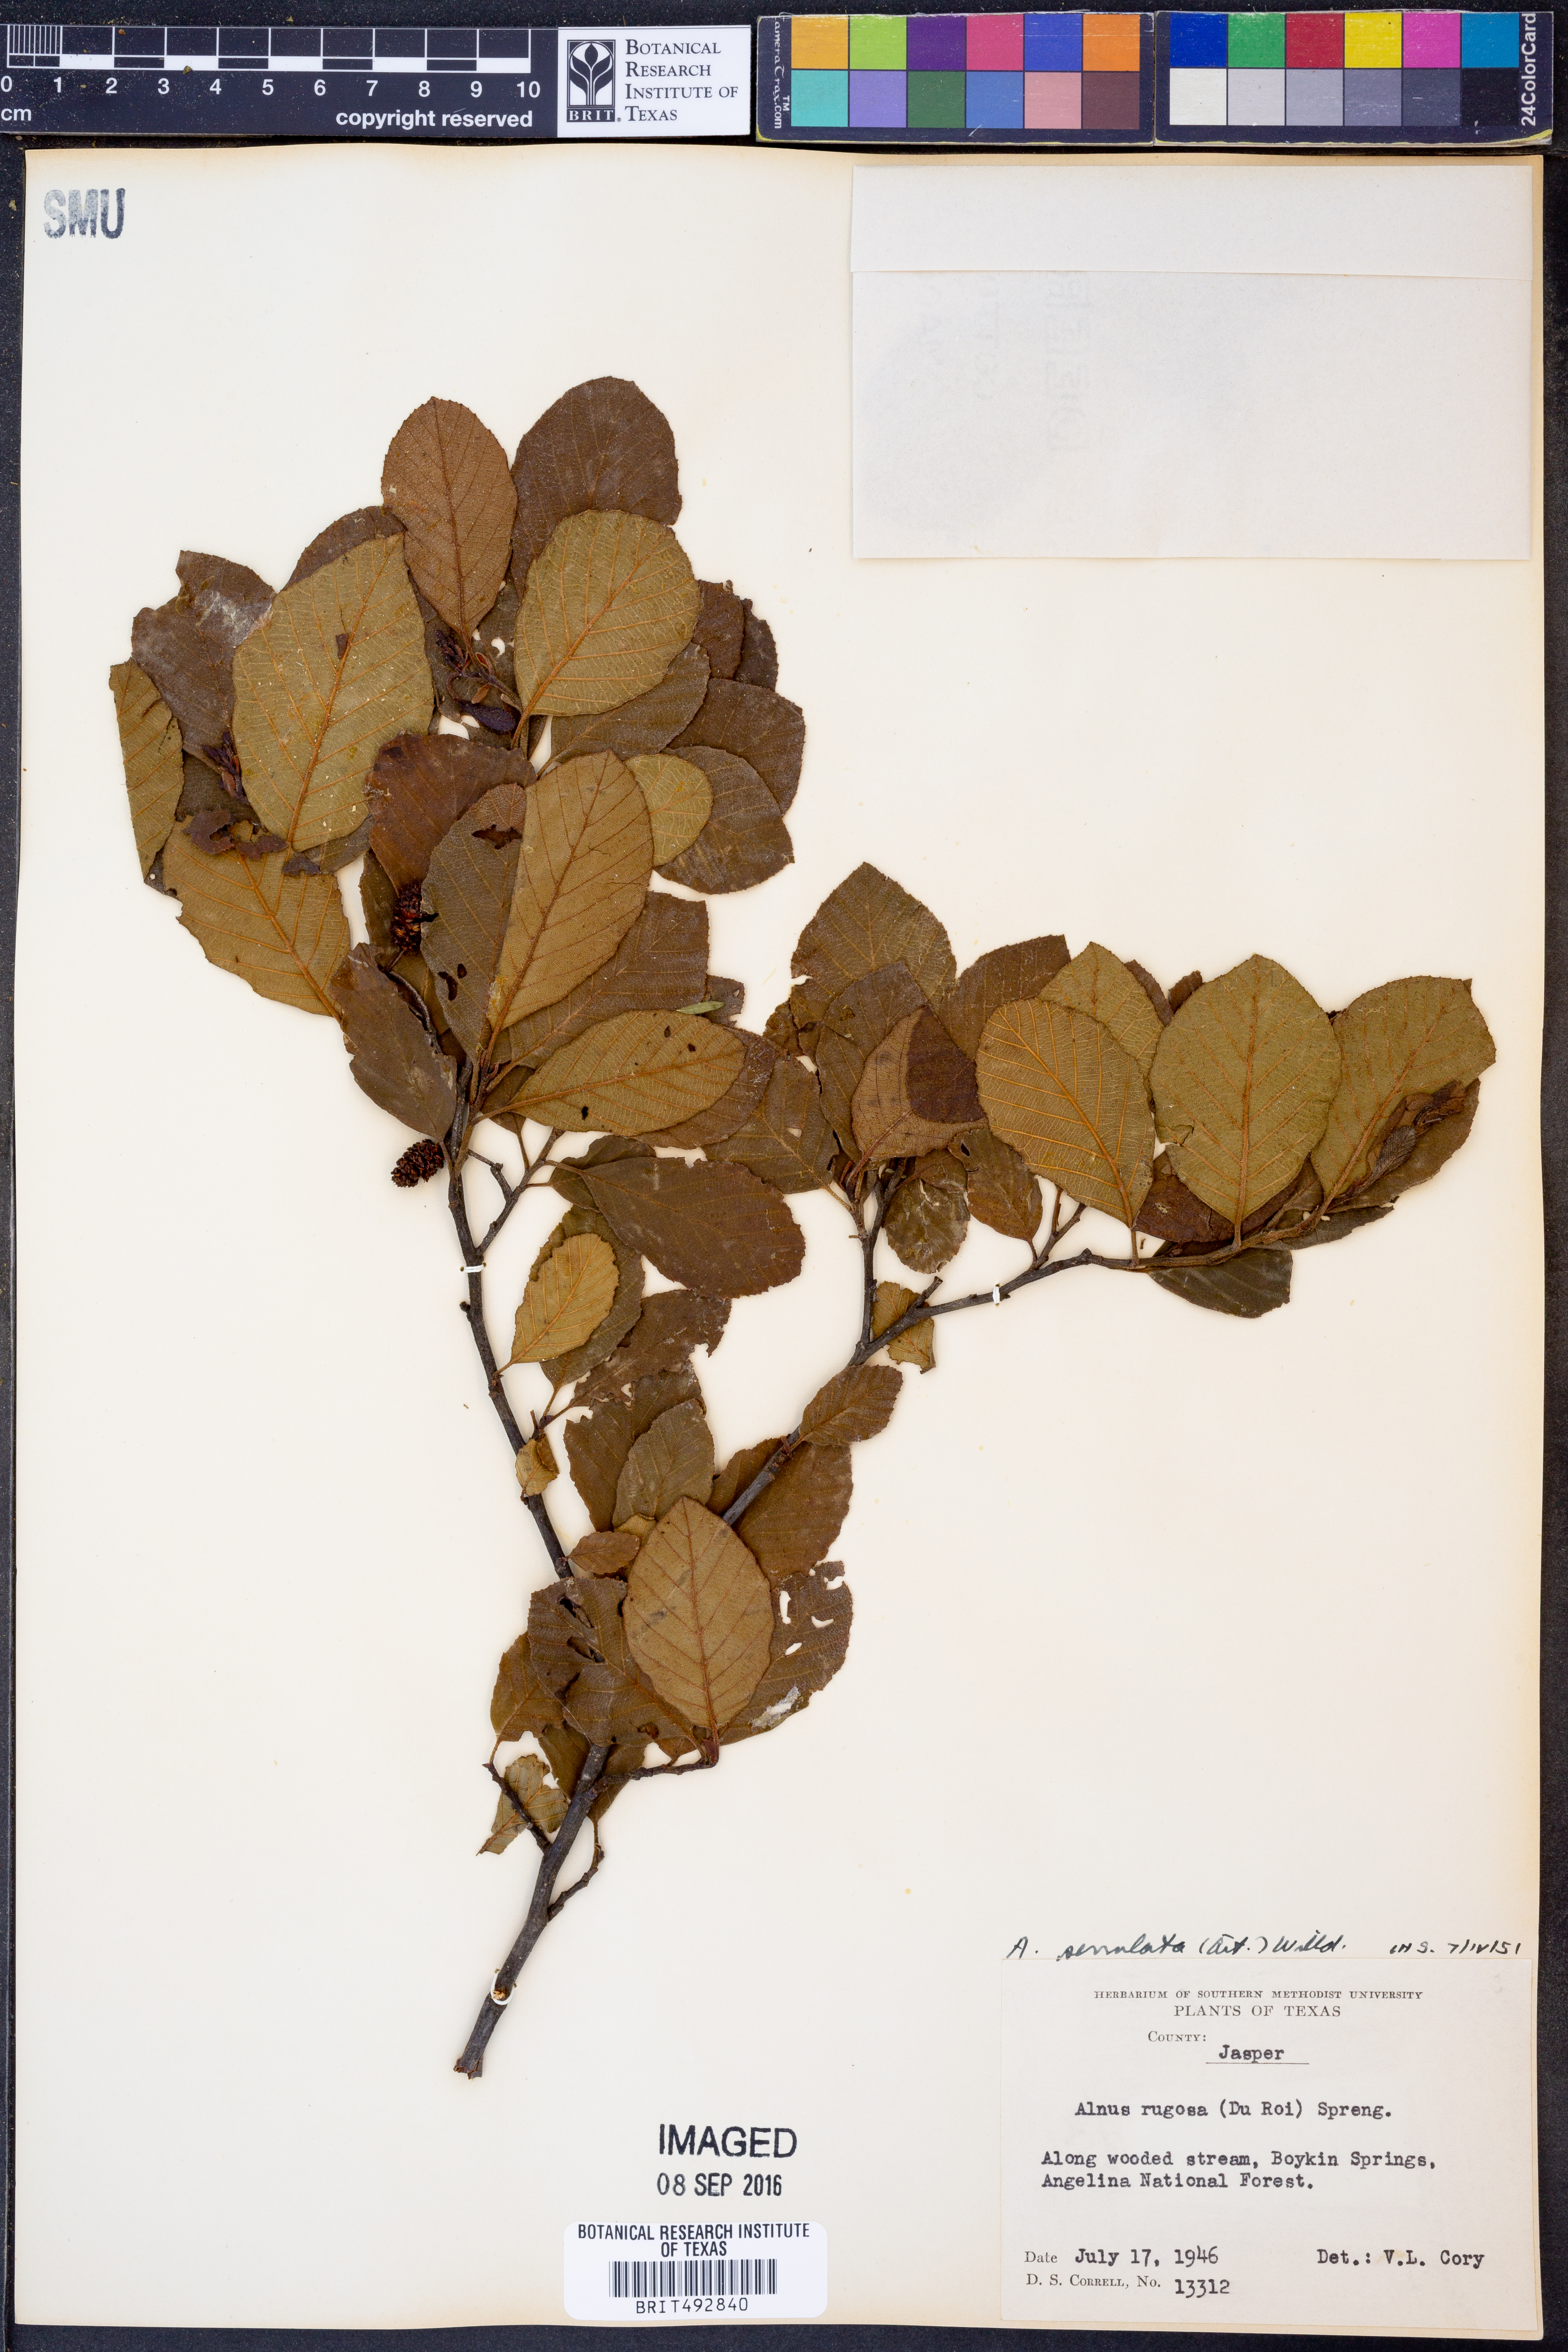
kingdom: Plantae
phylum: Tracheophyta
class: Magnoliopsida
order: Fagales
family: Betulaceae
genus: Alnus
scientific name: Alnus serrulata
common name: Hazel alder
